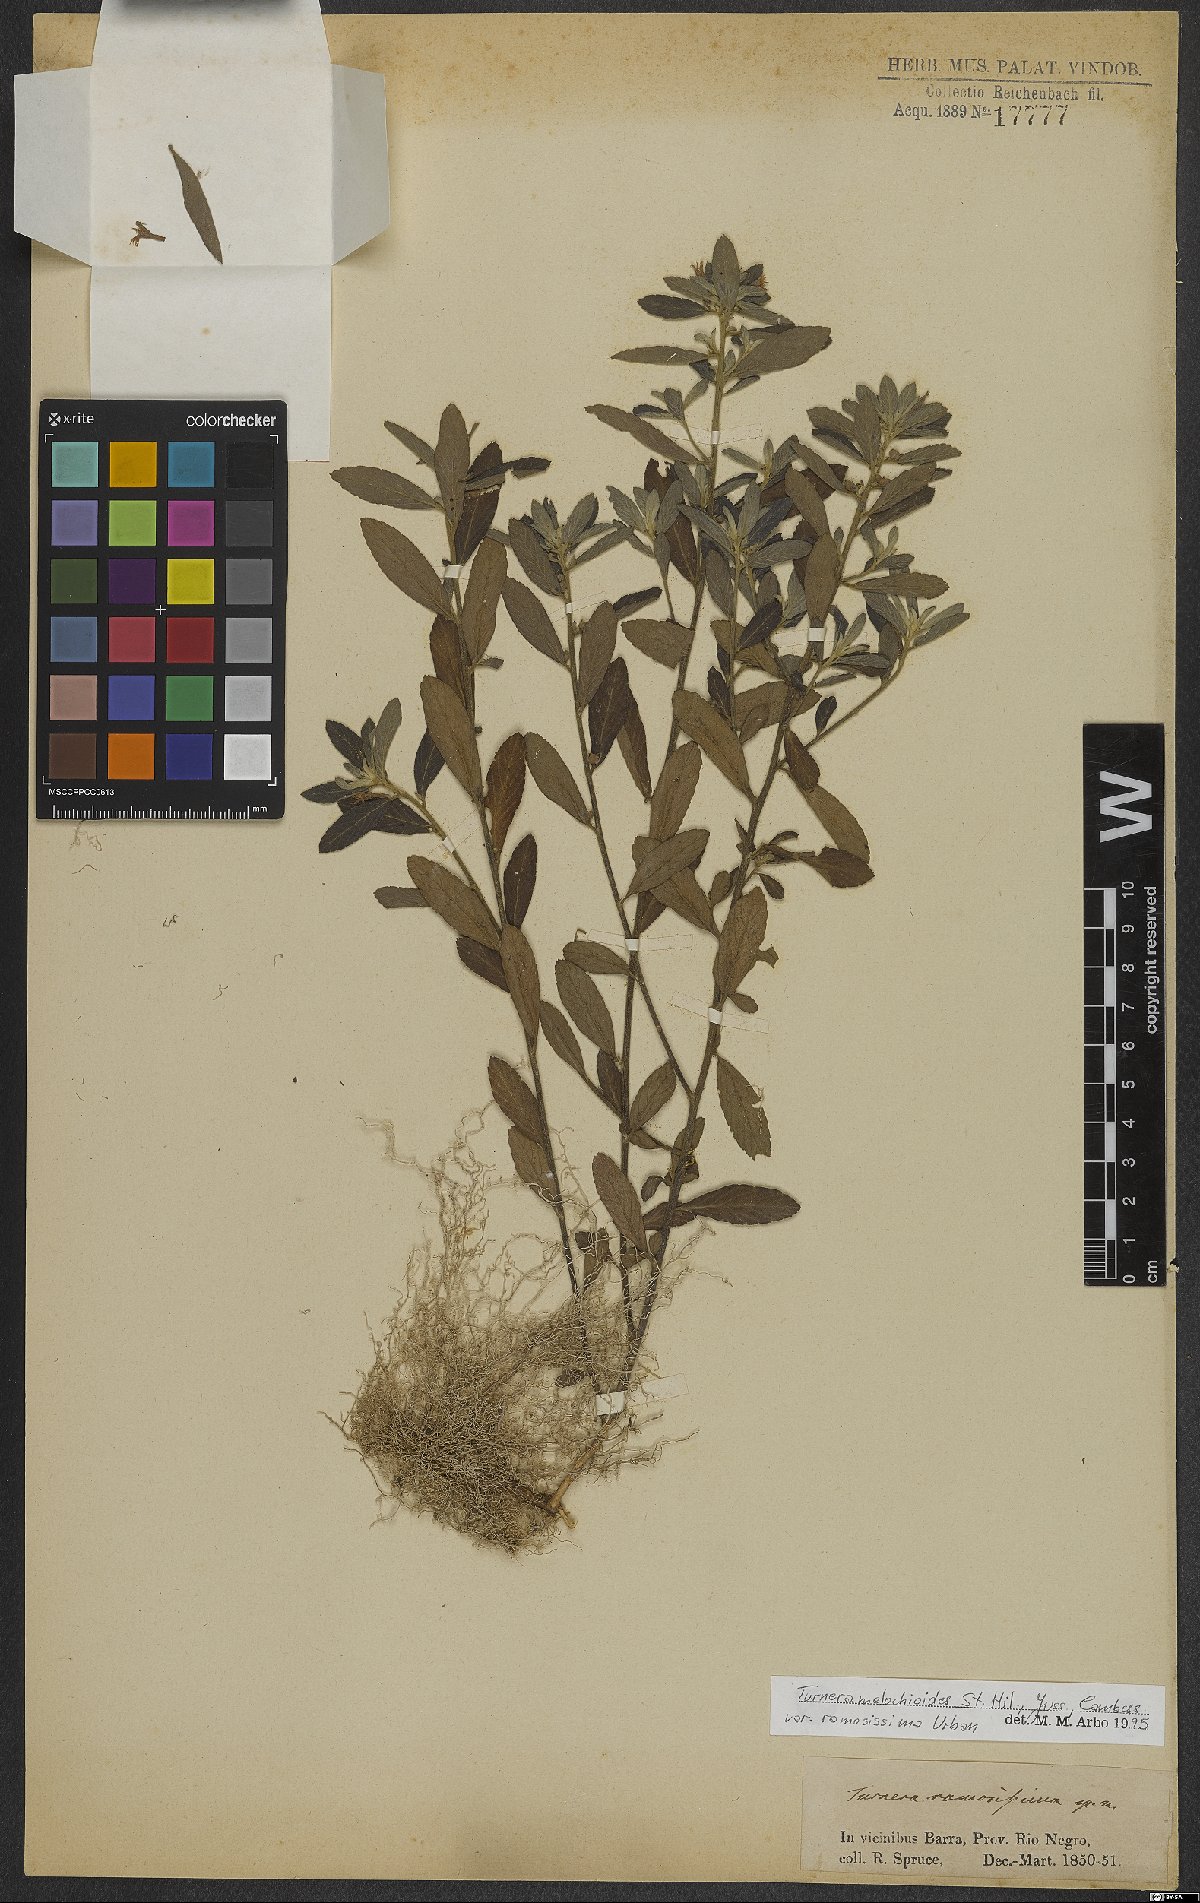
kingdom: Plantae
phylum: Tracheophyta
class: Magnoliopsida
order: Malpighiales
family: Turneraceae
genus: Turnera
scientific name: Turnera melochioides
